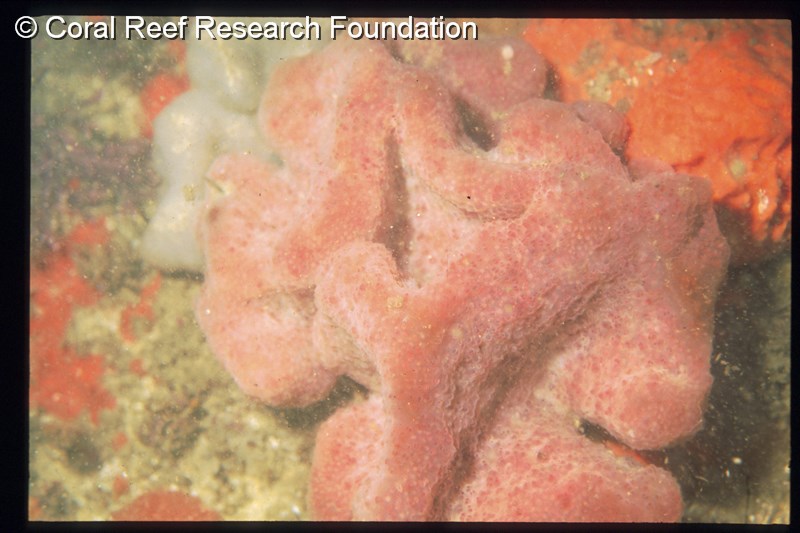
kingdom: Animalia
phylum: Chordata
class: Ascidiacea
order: Aplousobranchia
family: Pseudodistomidae
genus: Pseudodistoma
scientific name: Pseudodistoma
